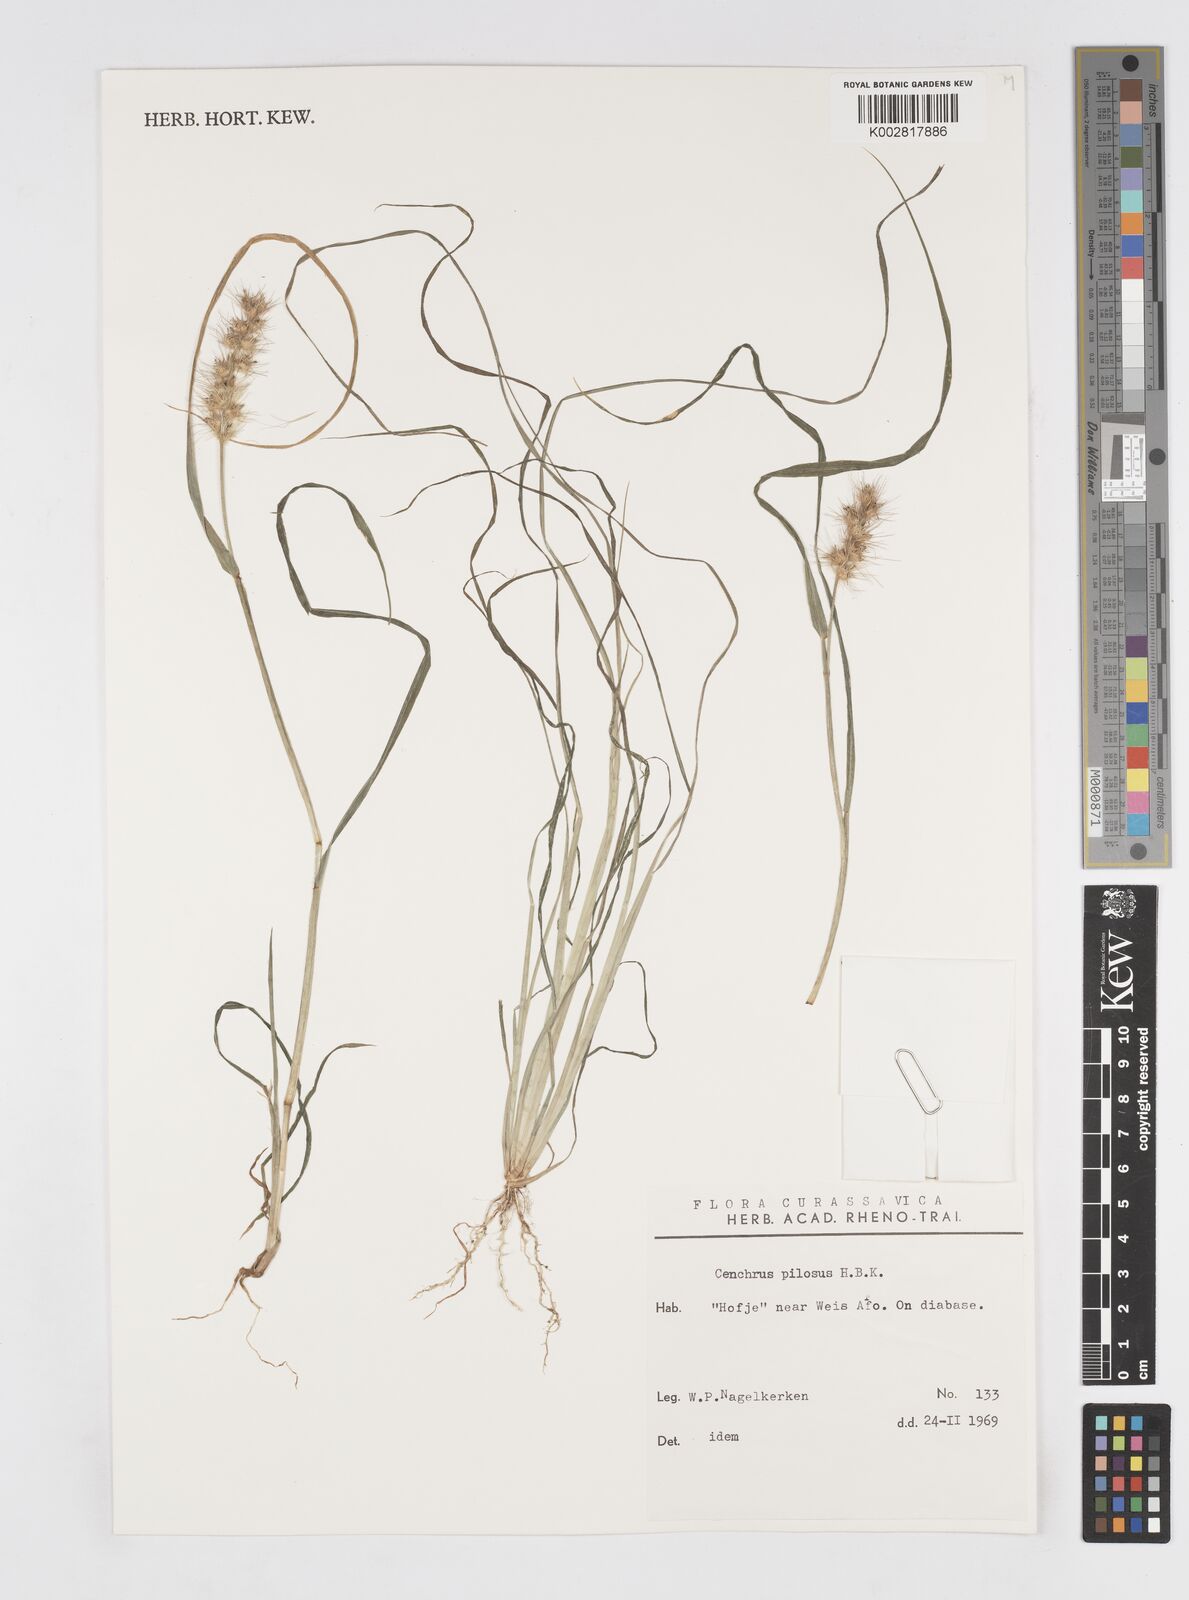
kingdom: Plantae
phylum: Tracheophyta
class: Liliopsida
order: Poales
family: Poaceae
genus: Cenchrus
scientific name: Cenchrus pilosus
